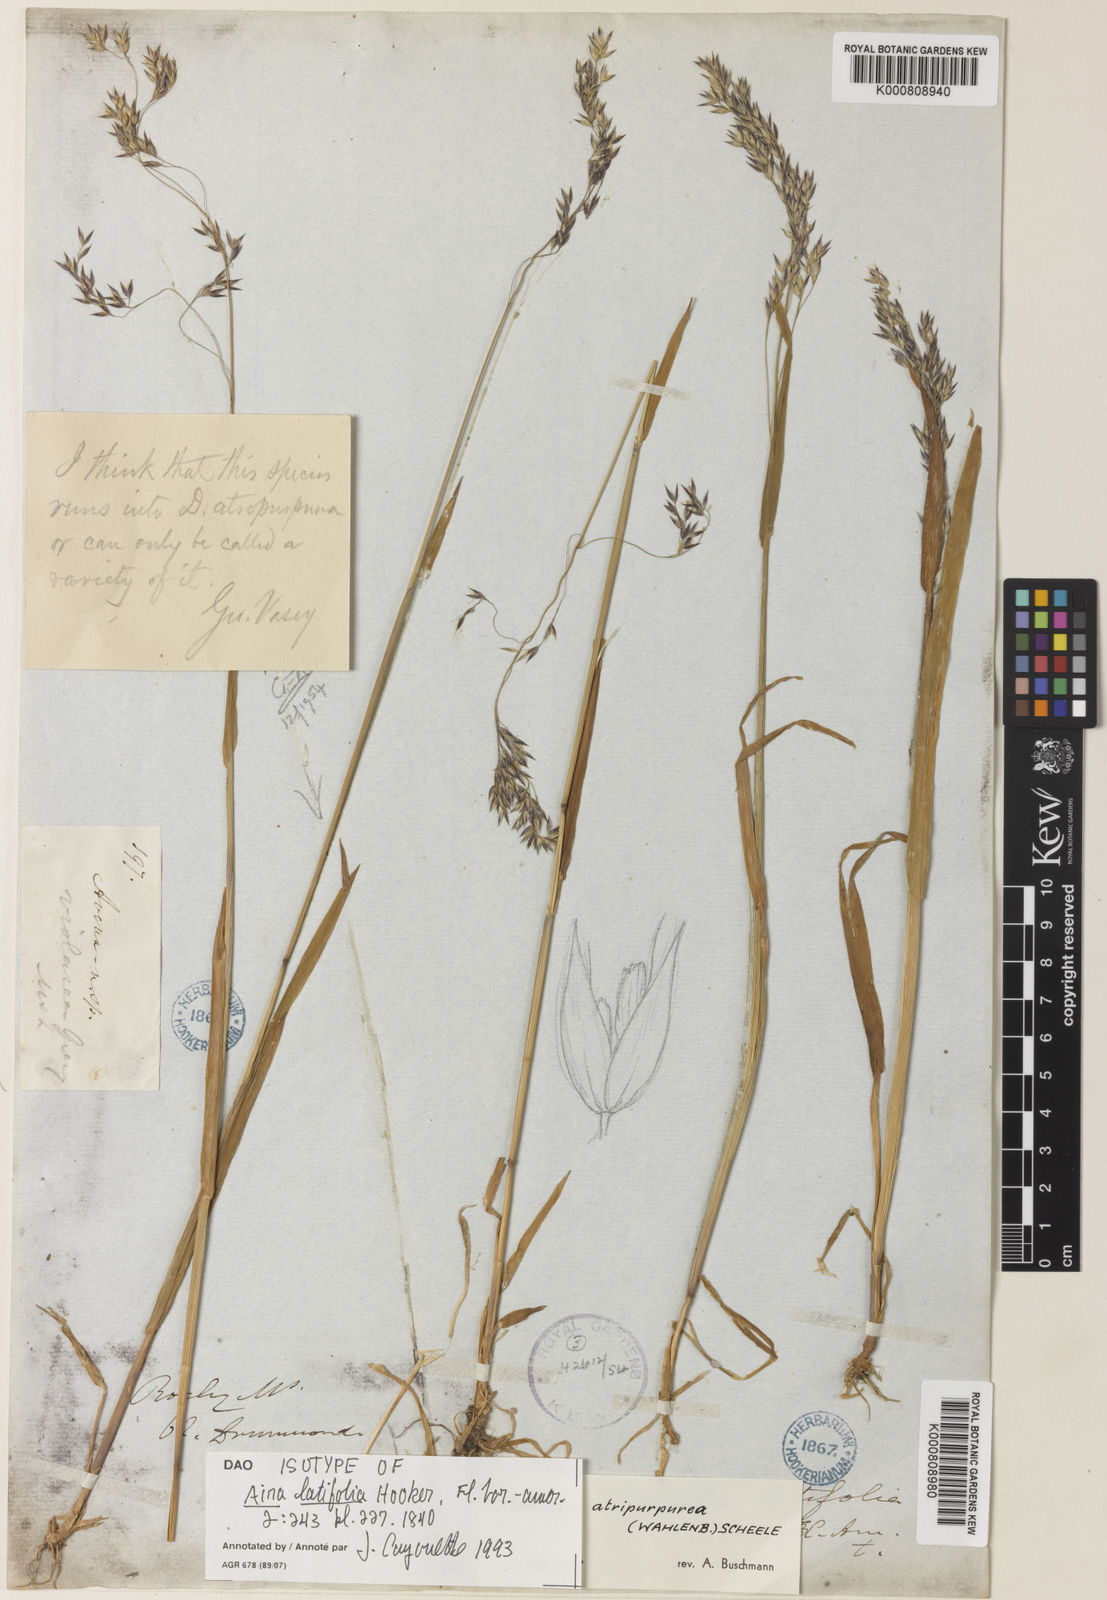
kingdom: Plantae
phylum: Tracheophyta
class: Liliopsida
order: Poales
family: Poaceae
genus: Vahlodea
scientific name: Vahlodea atropurpurea
